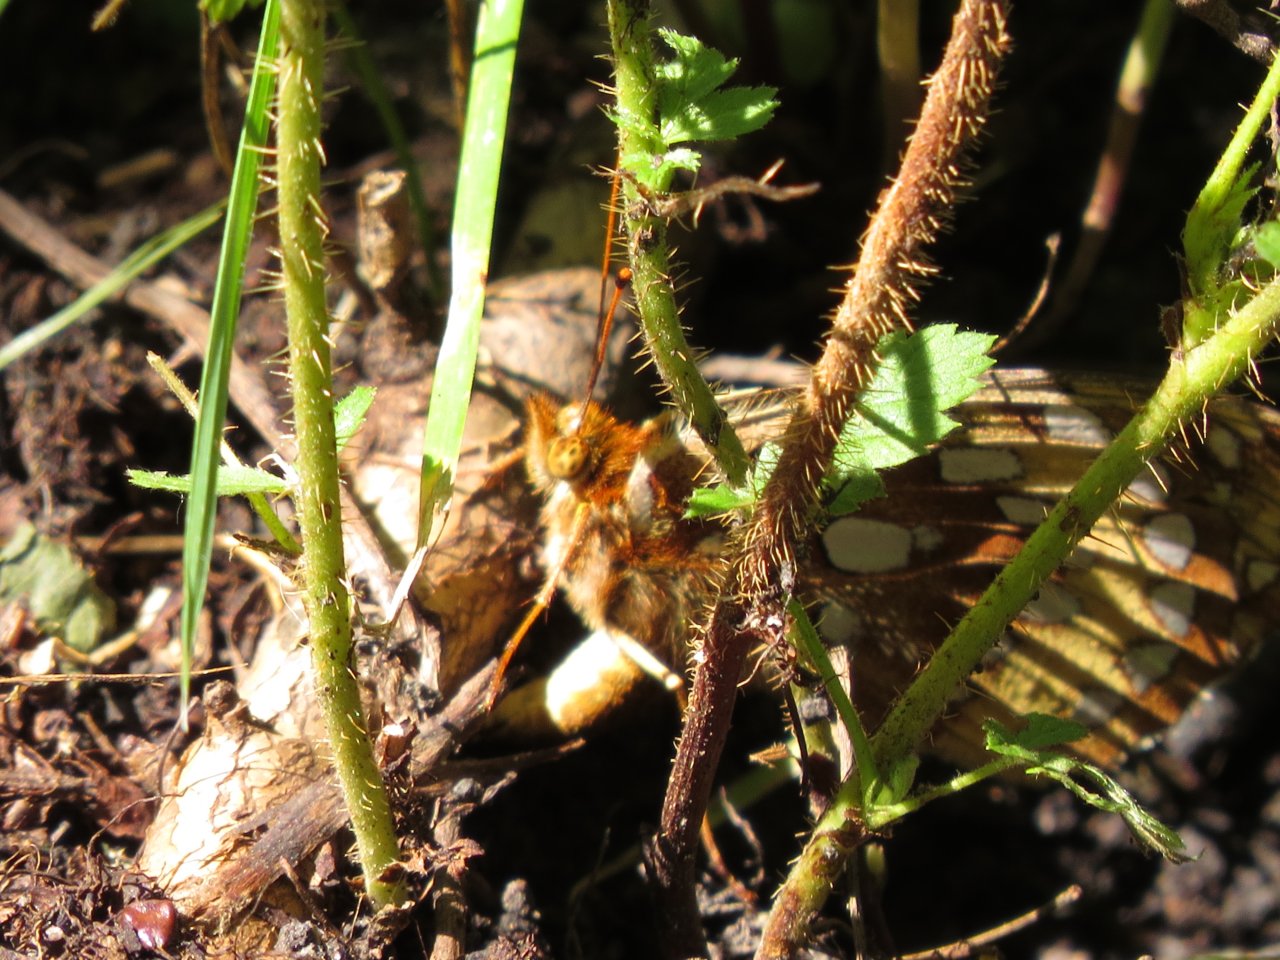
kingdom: Animalia
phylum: Arthropoda
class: Insecta
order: Lepidoptera
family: Nymphalidae
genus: Speyeria
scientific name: Speyeria cybele
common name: Great Spangled Fritillary
